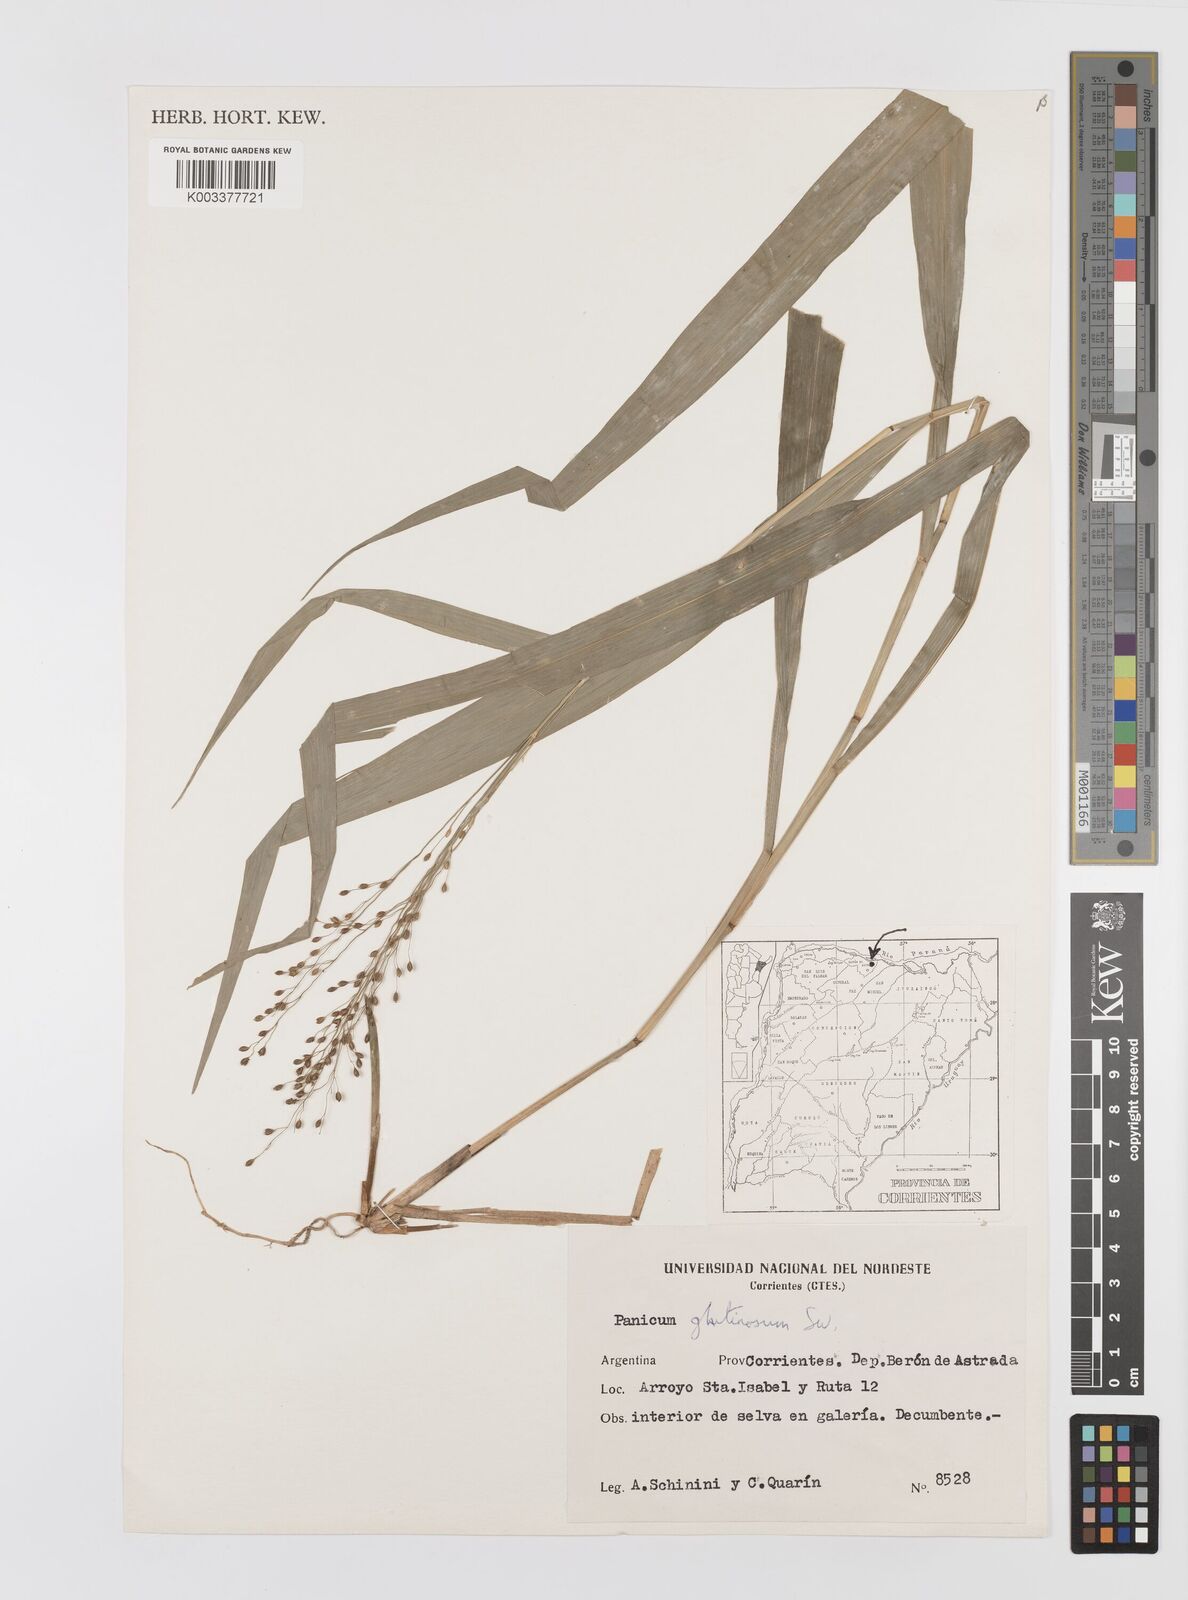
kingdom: Plantae
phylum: Tracheophyta
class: Liliopsida
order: Poales
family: Poaceae
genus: Homolepis
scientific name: Homolepis glutinosa
